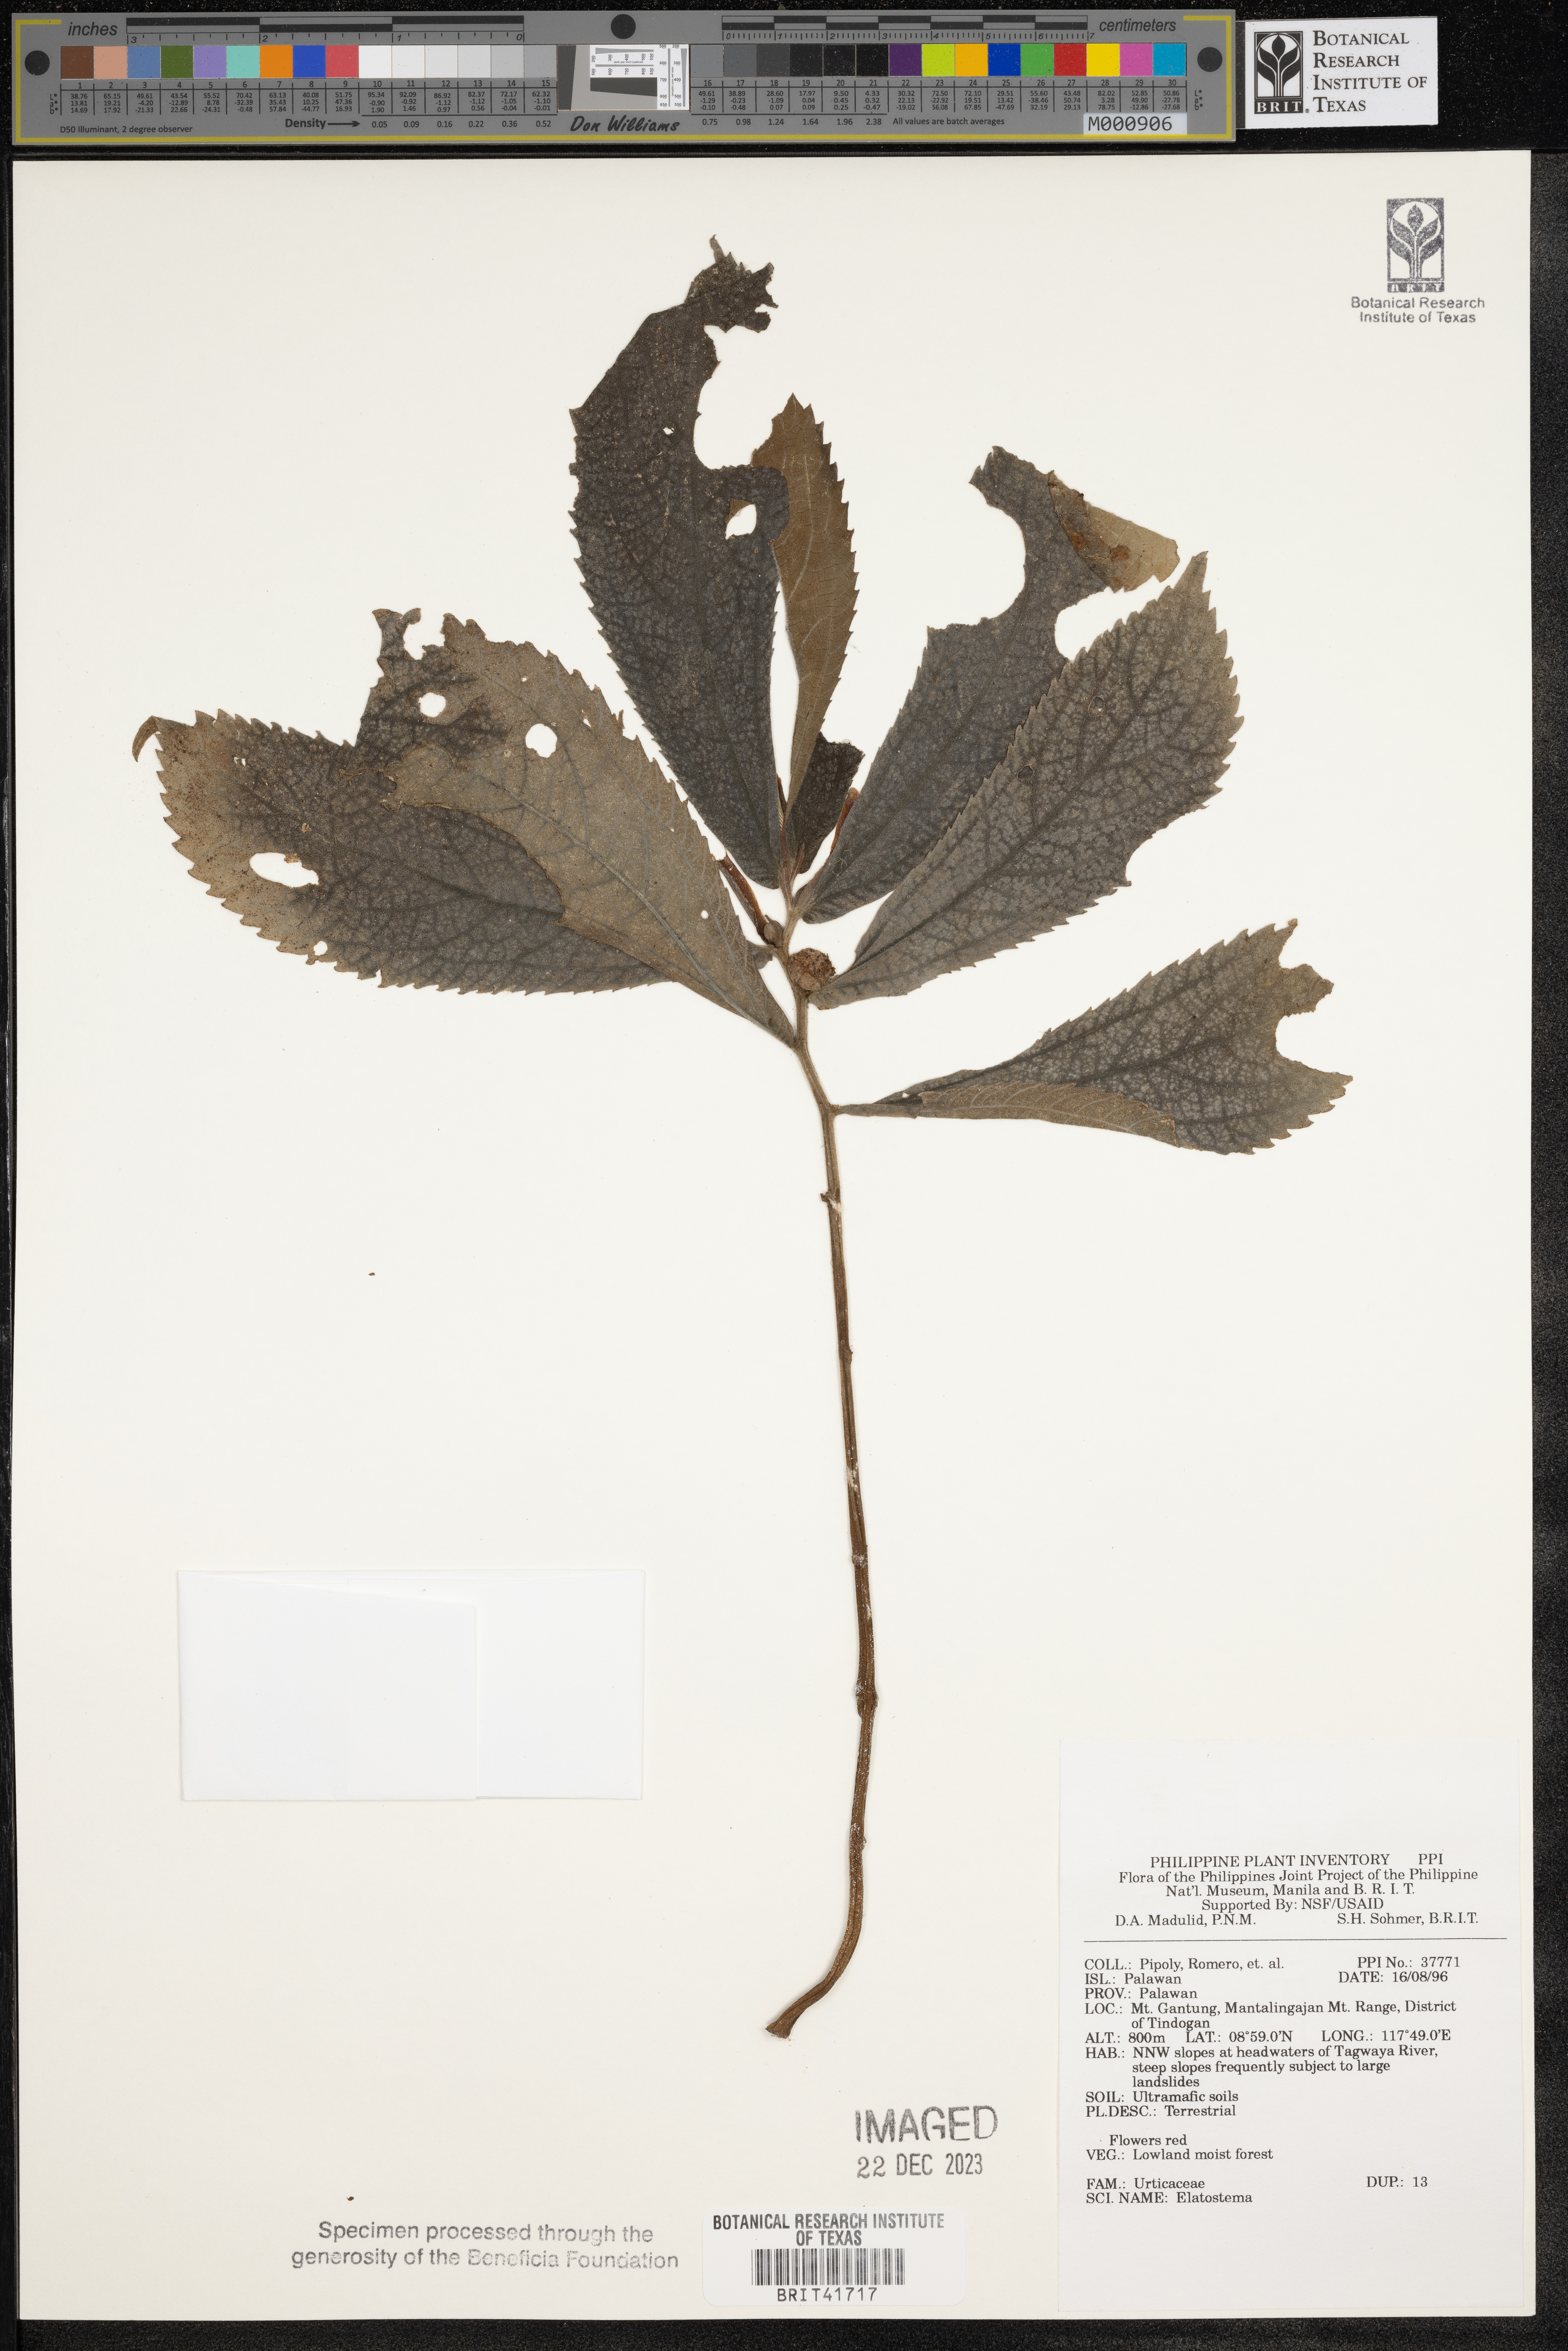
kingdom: Plantae
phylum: Tracheophyta
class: Magnoliopsida
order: Rosales
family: Urticaceae
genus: Elatostema
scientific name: Elatostema
